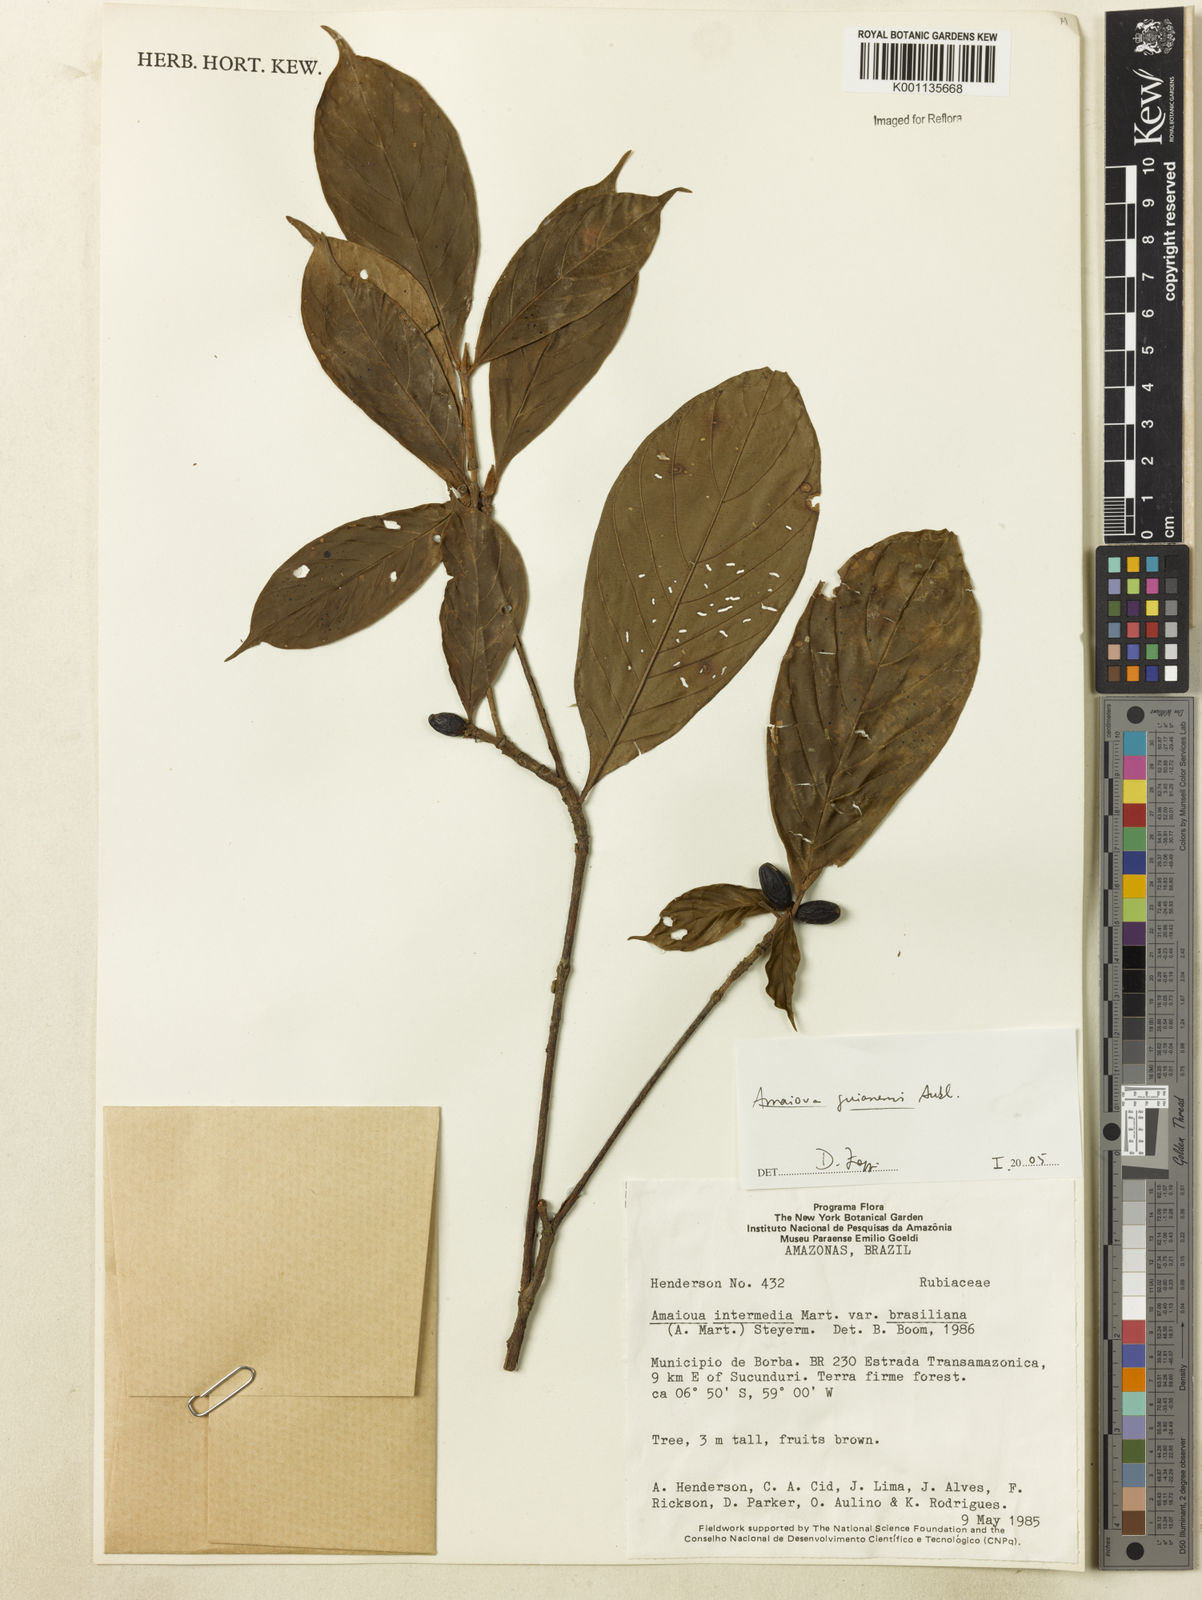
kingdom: Plantae
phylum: Tracheophyta
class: Magnoliopsida
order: Gentianales
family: Rubiaceae
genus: Amaioua
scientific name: Amaioua guianensis
